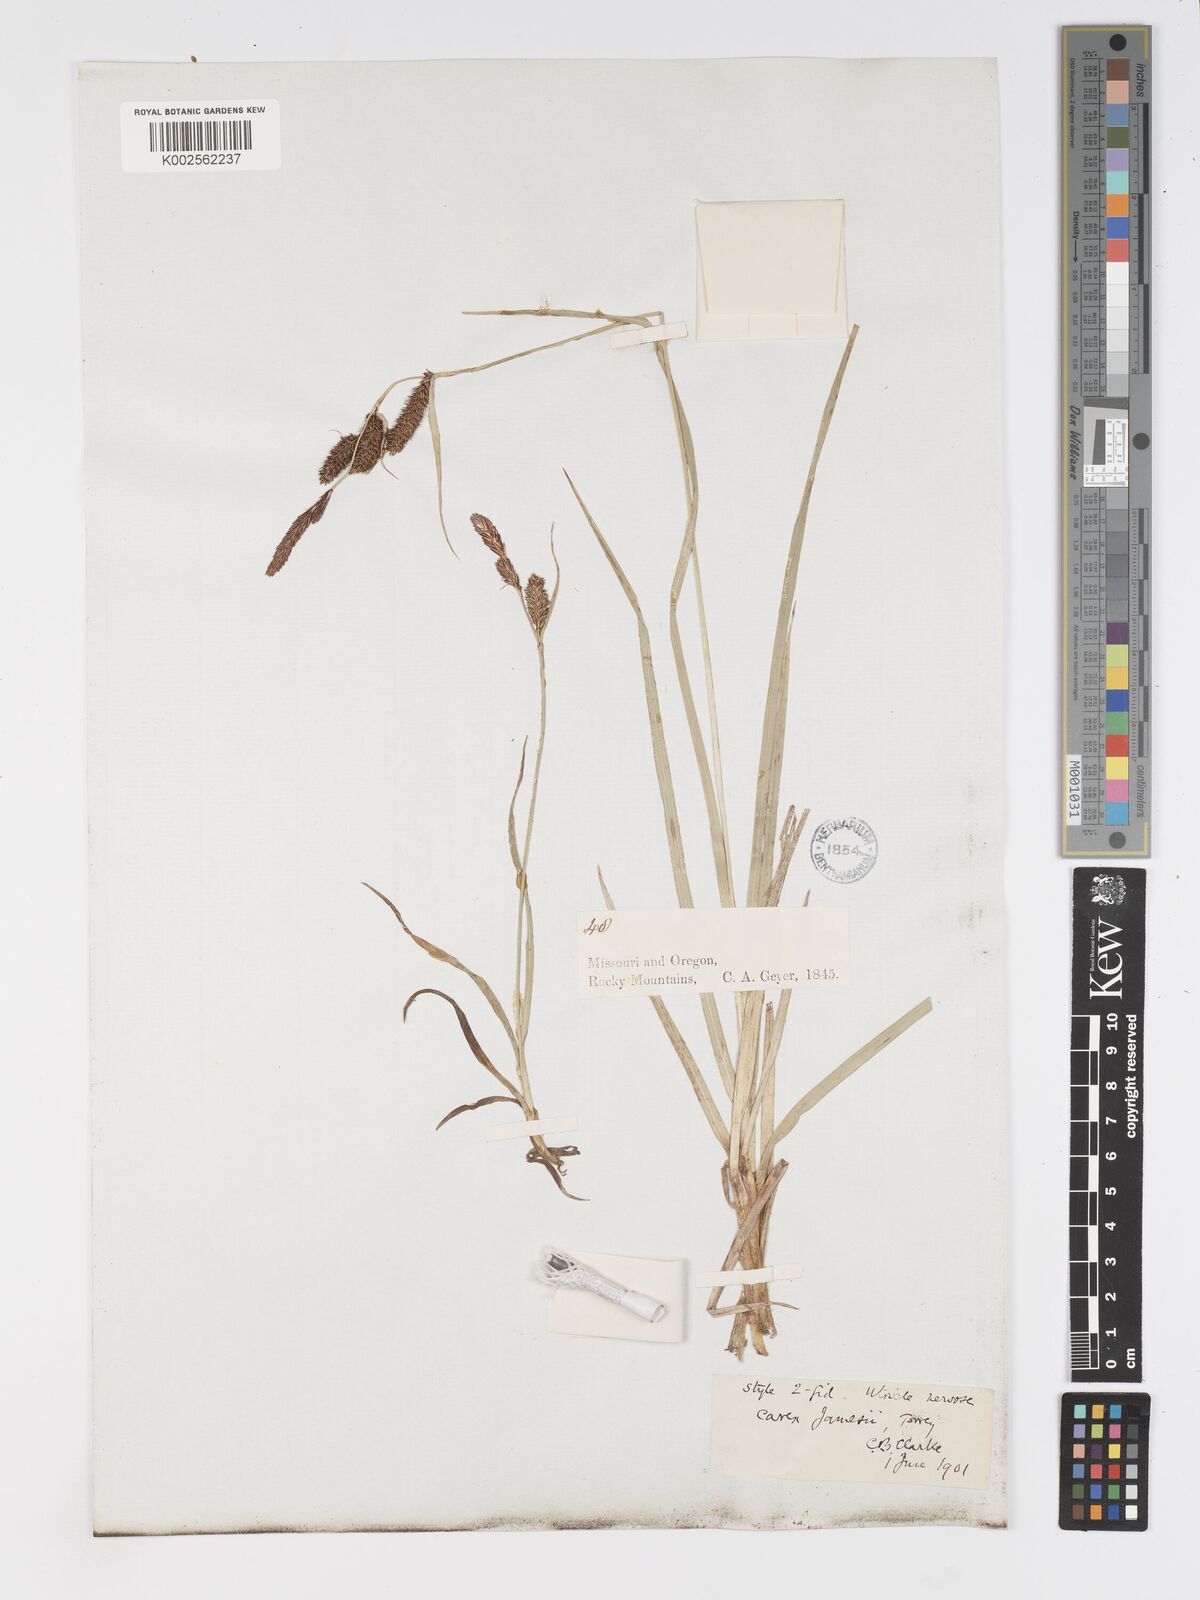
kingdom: Plantae
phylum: Tracheophyta
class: Liliopsida
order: Poales
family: Cyperaceae
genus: Carex
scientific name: Carex nebrascensis
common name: Nebraska sedge
